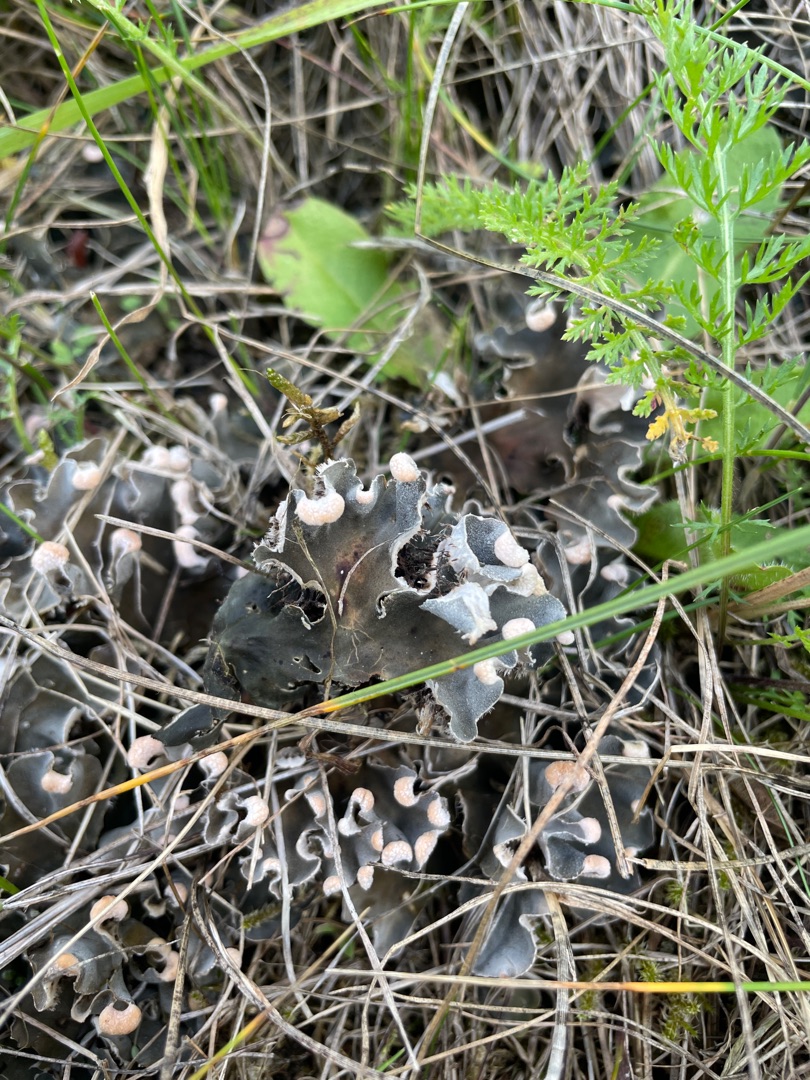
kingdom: Fungi
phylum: Ascomycota
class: Lecanoromycetes
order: Peltigerales
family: Peltigeraceae
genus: Peltigera
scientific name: Peltigera
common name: Skjoldlav
